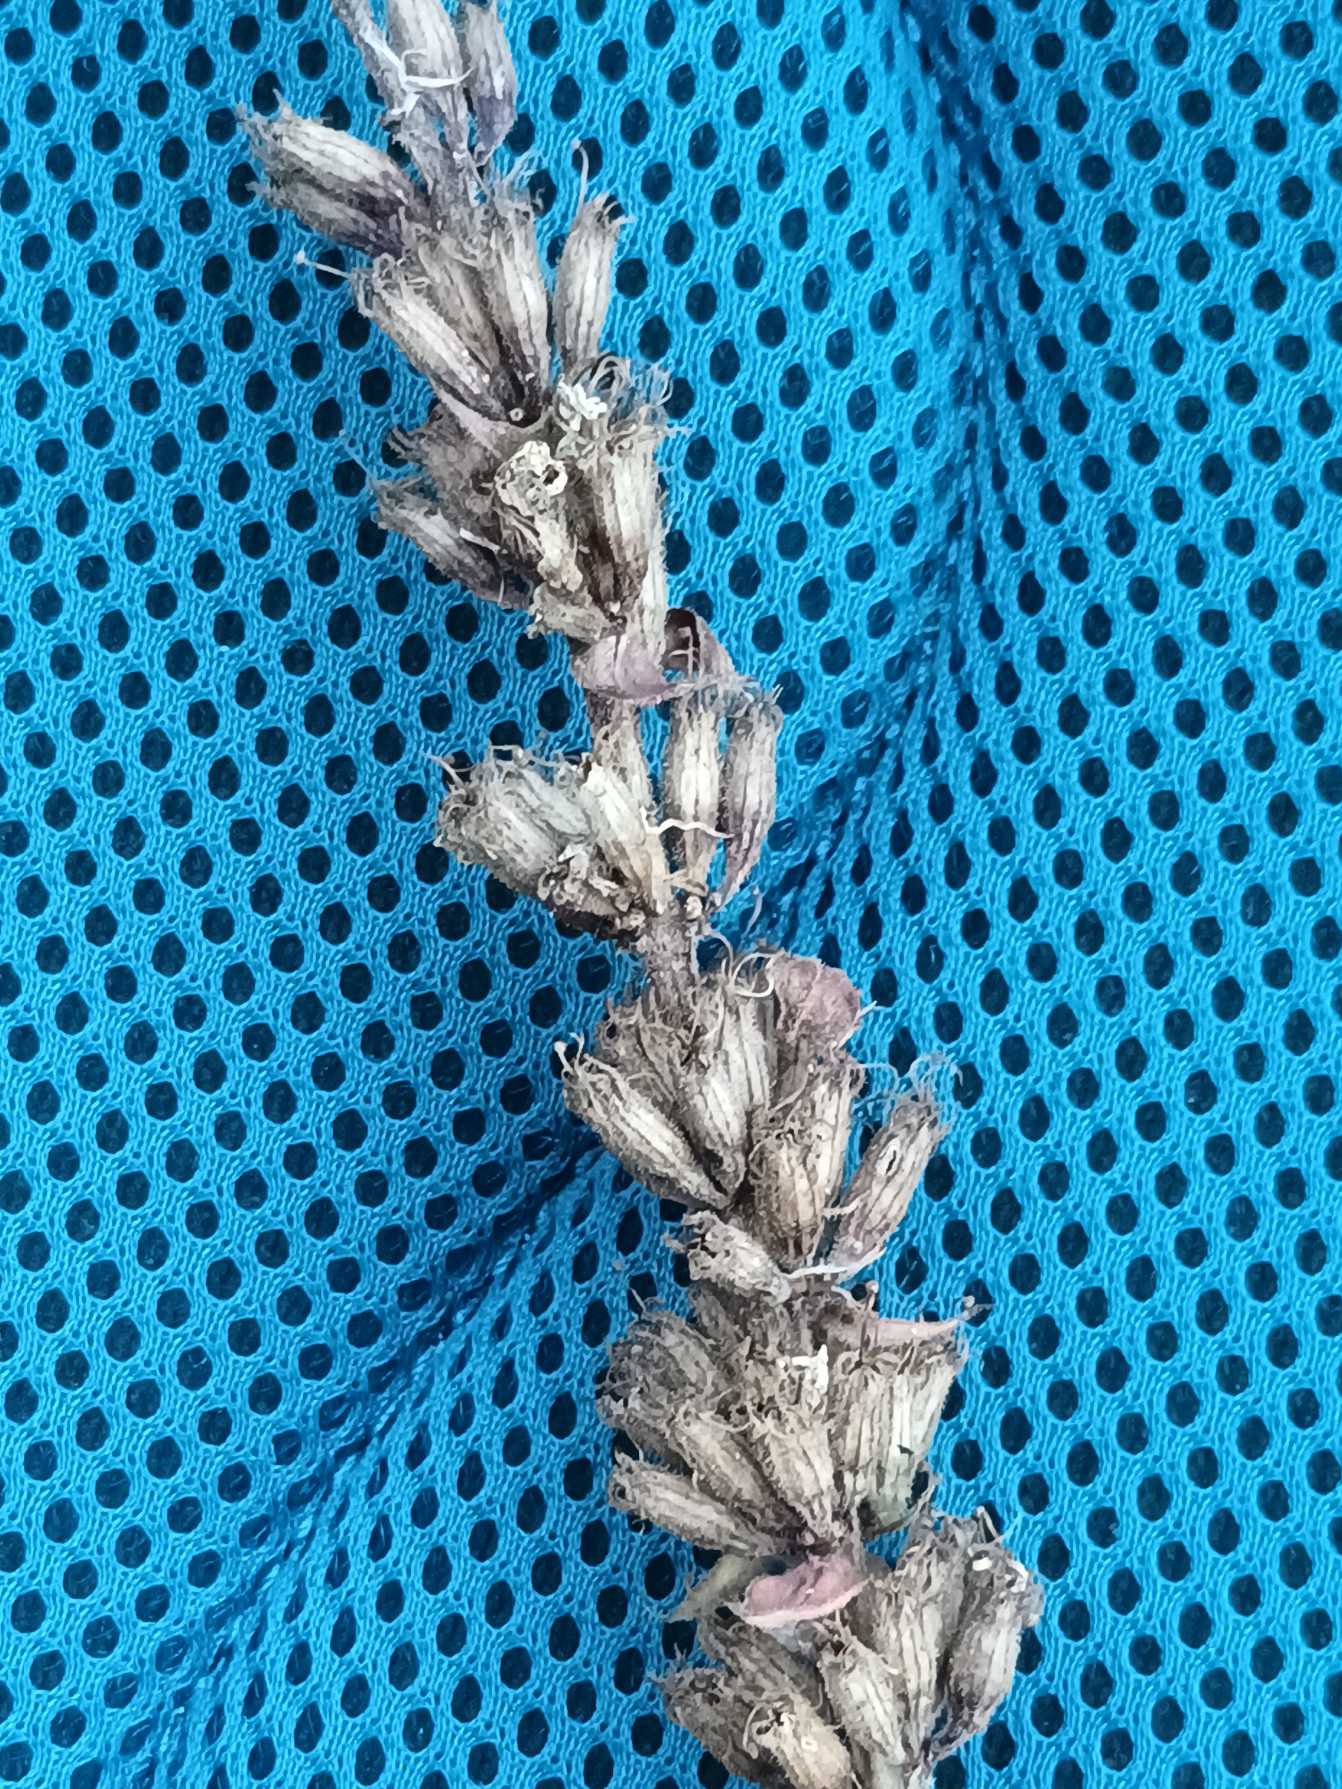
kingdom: Plantae
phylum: Tracheophyta
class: Magnoliopsida
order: Myrtales
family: Lythraceae
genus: Lythrum
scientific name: Lythrum salicaria
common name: Kattehale
